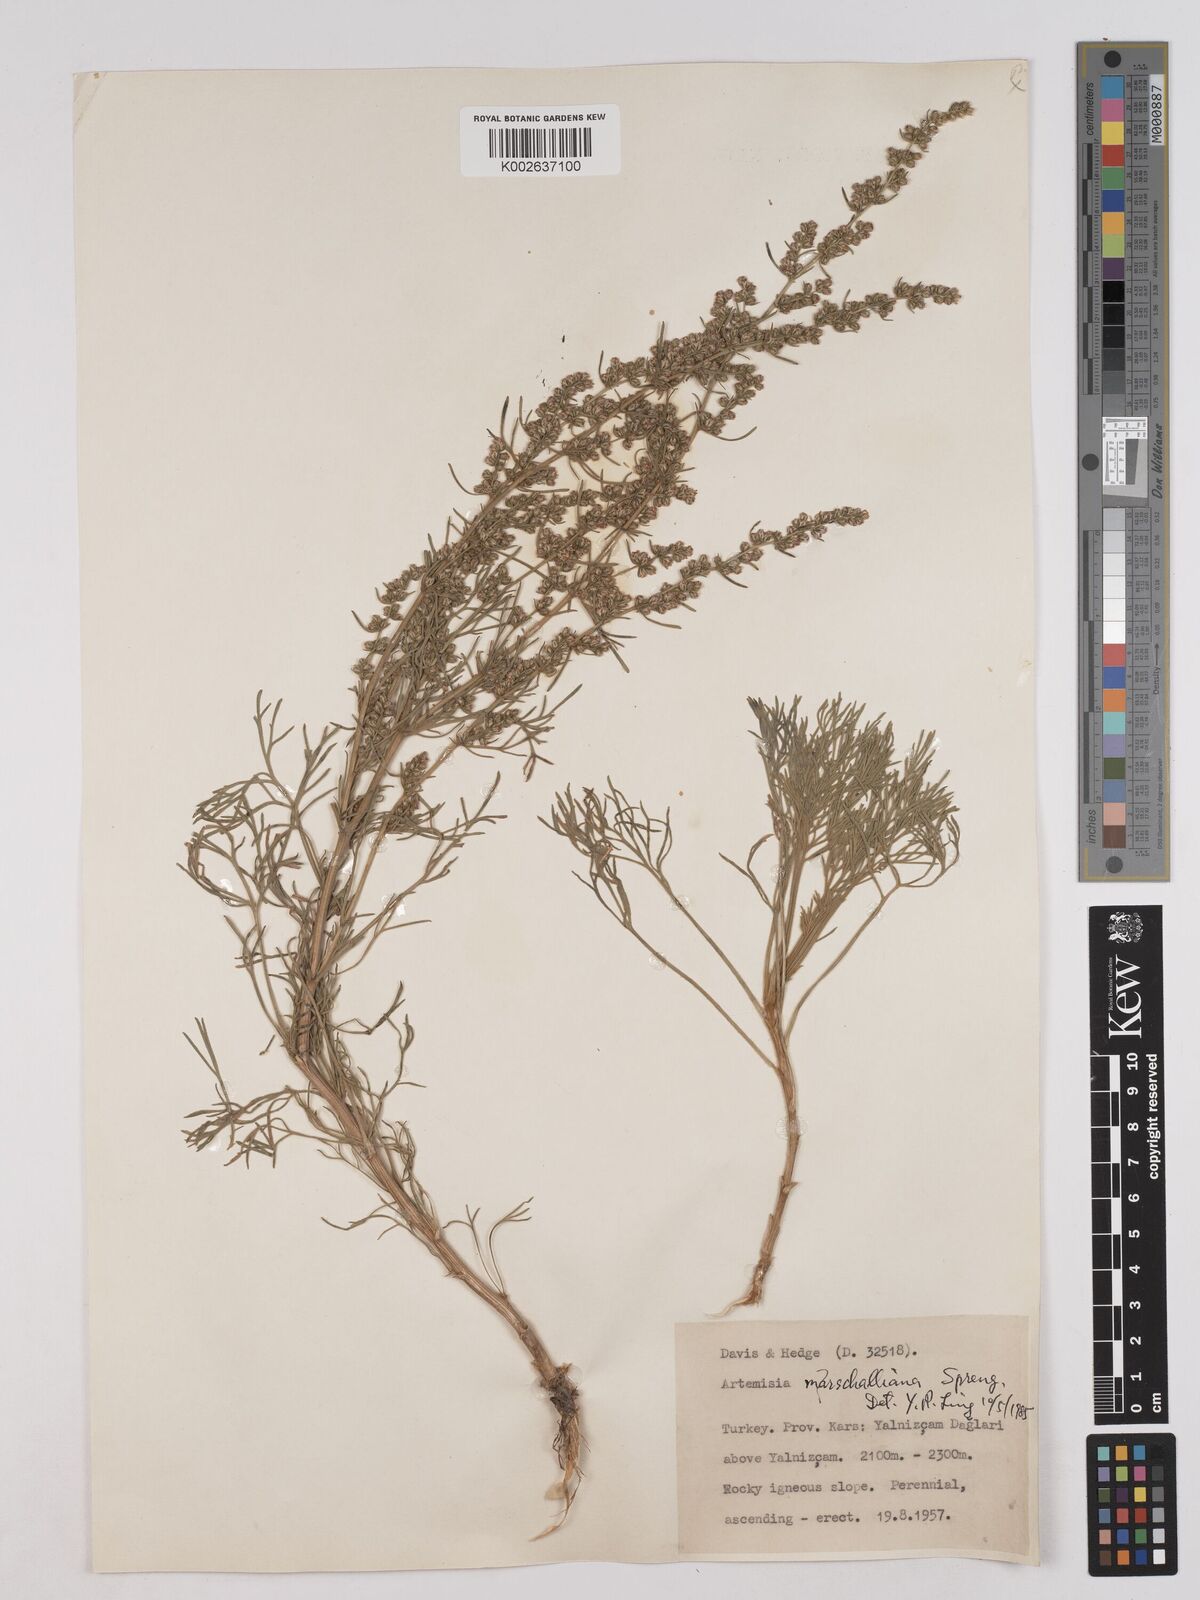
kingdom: Plantae
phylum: Tracheophyta
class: Magnoliopsida
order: Asterales
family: Asteraceae
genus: Artemisia
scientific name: Artemisia marschalliana
